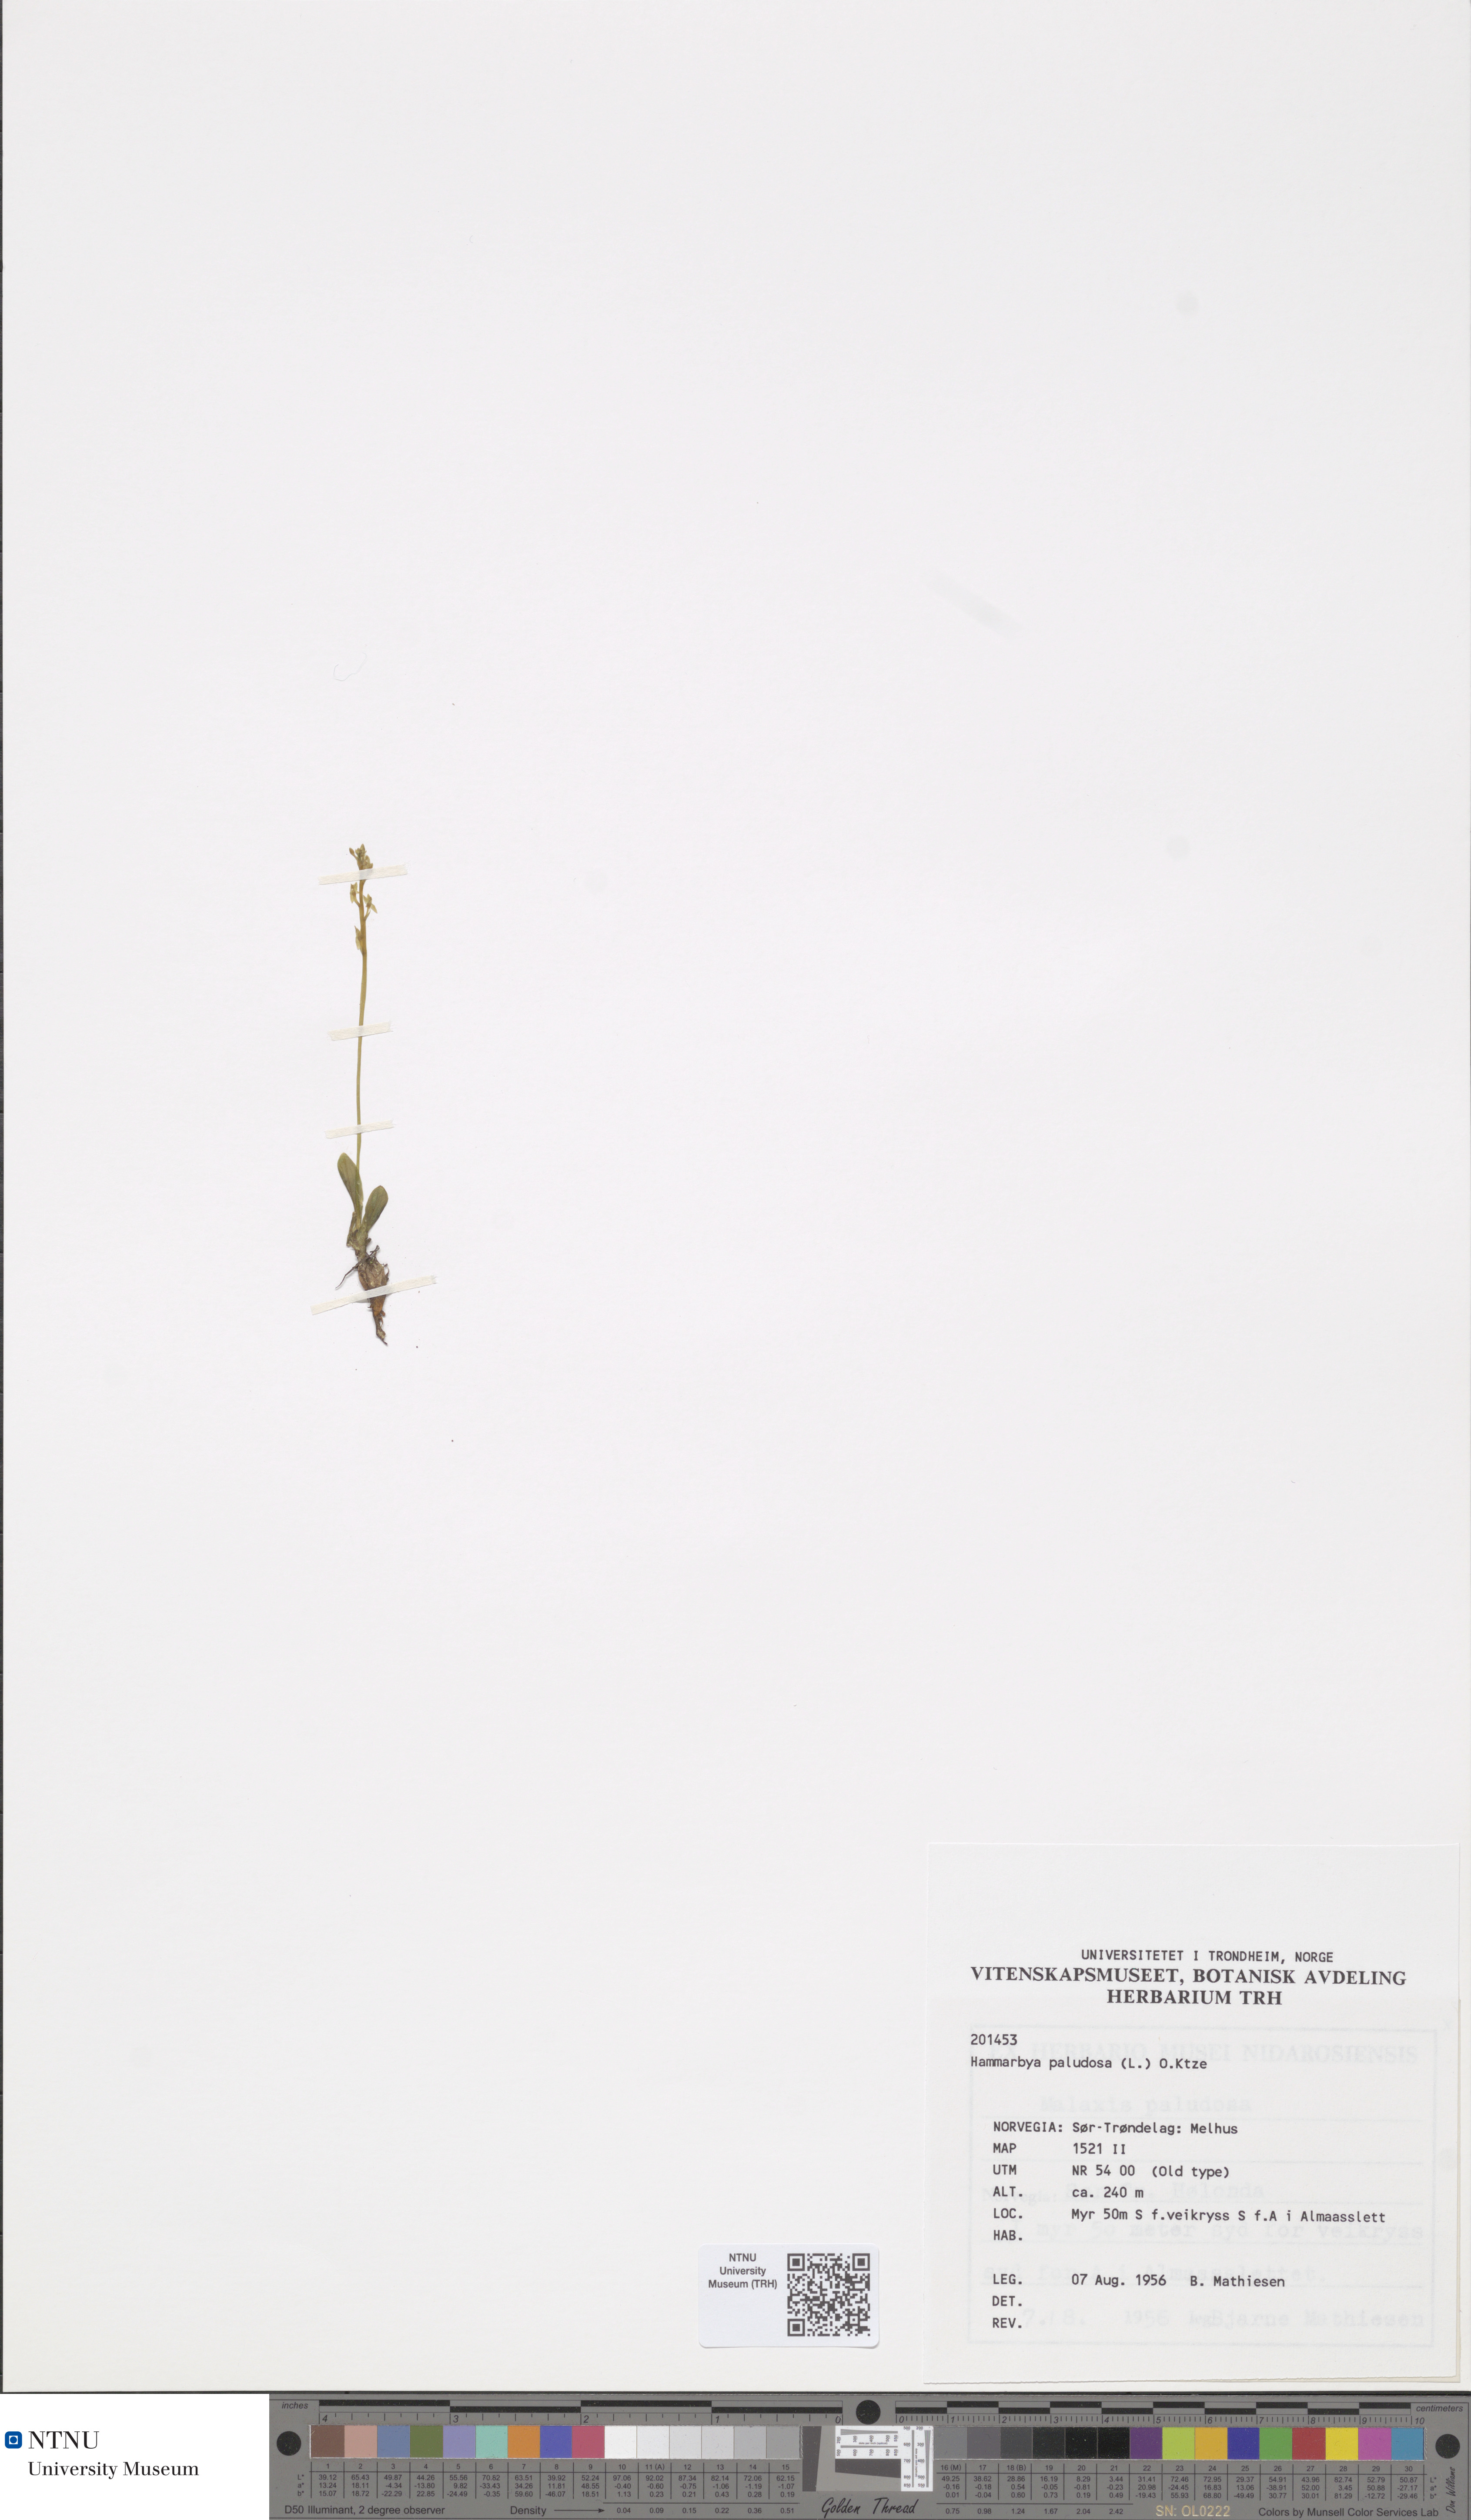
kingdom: Plantae
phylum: Tracheophyta
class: Liliopsida
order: Asparagales
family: Orchidaceae
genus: Hammarbya
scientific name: Hammarbya paludosa
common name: Bog orchid
